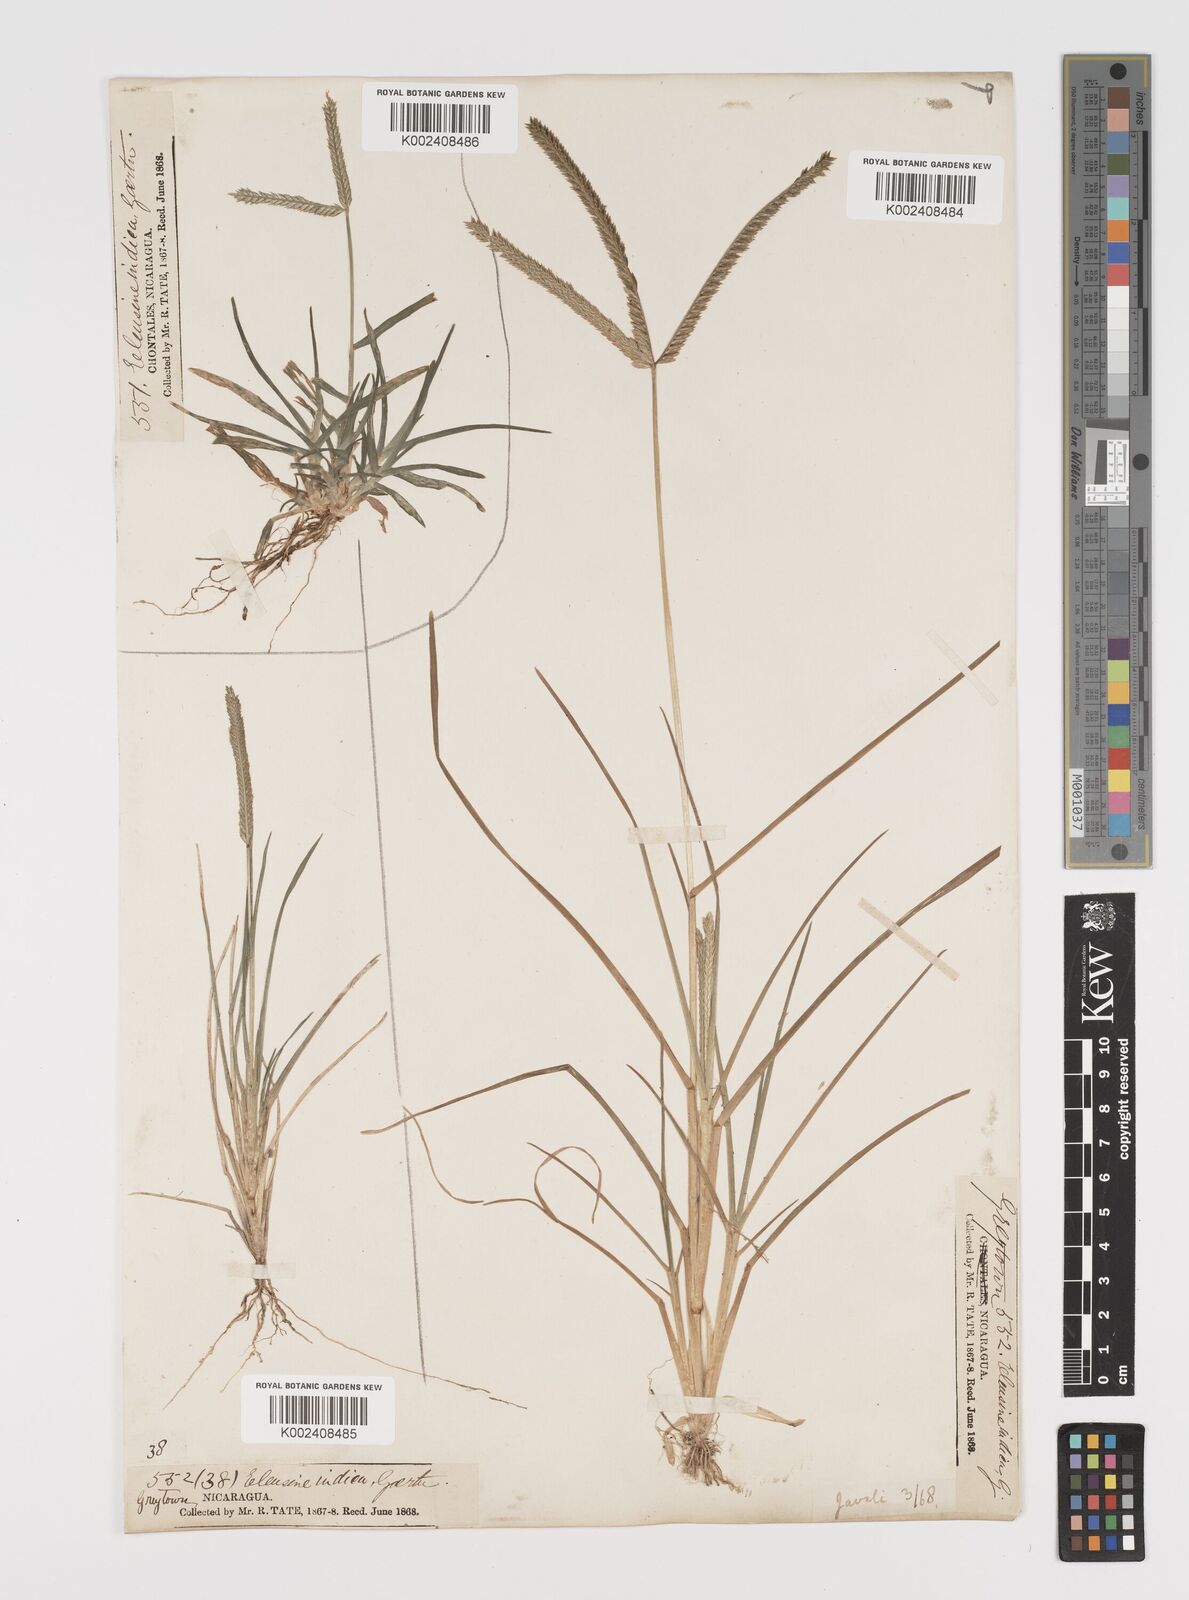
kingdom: Plantae
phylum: Tracheophyta
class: Liliopsida
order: Poales
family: Poaceae
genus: Eleusine
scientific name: Eleusine indica
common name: Yard-grass
